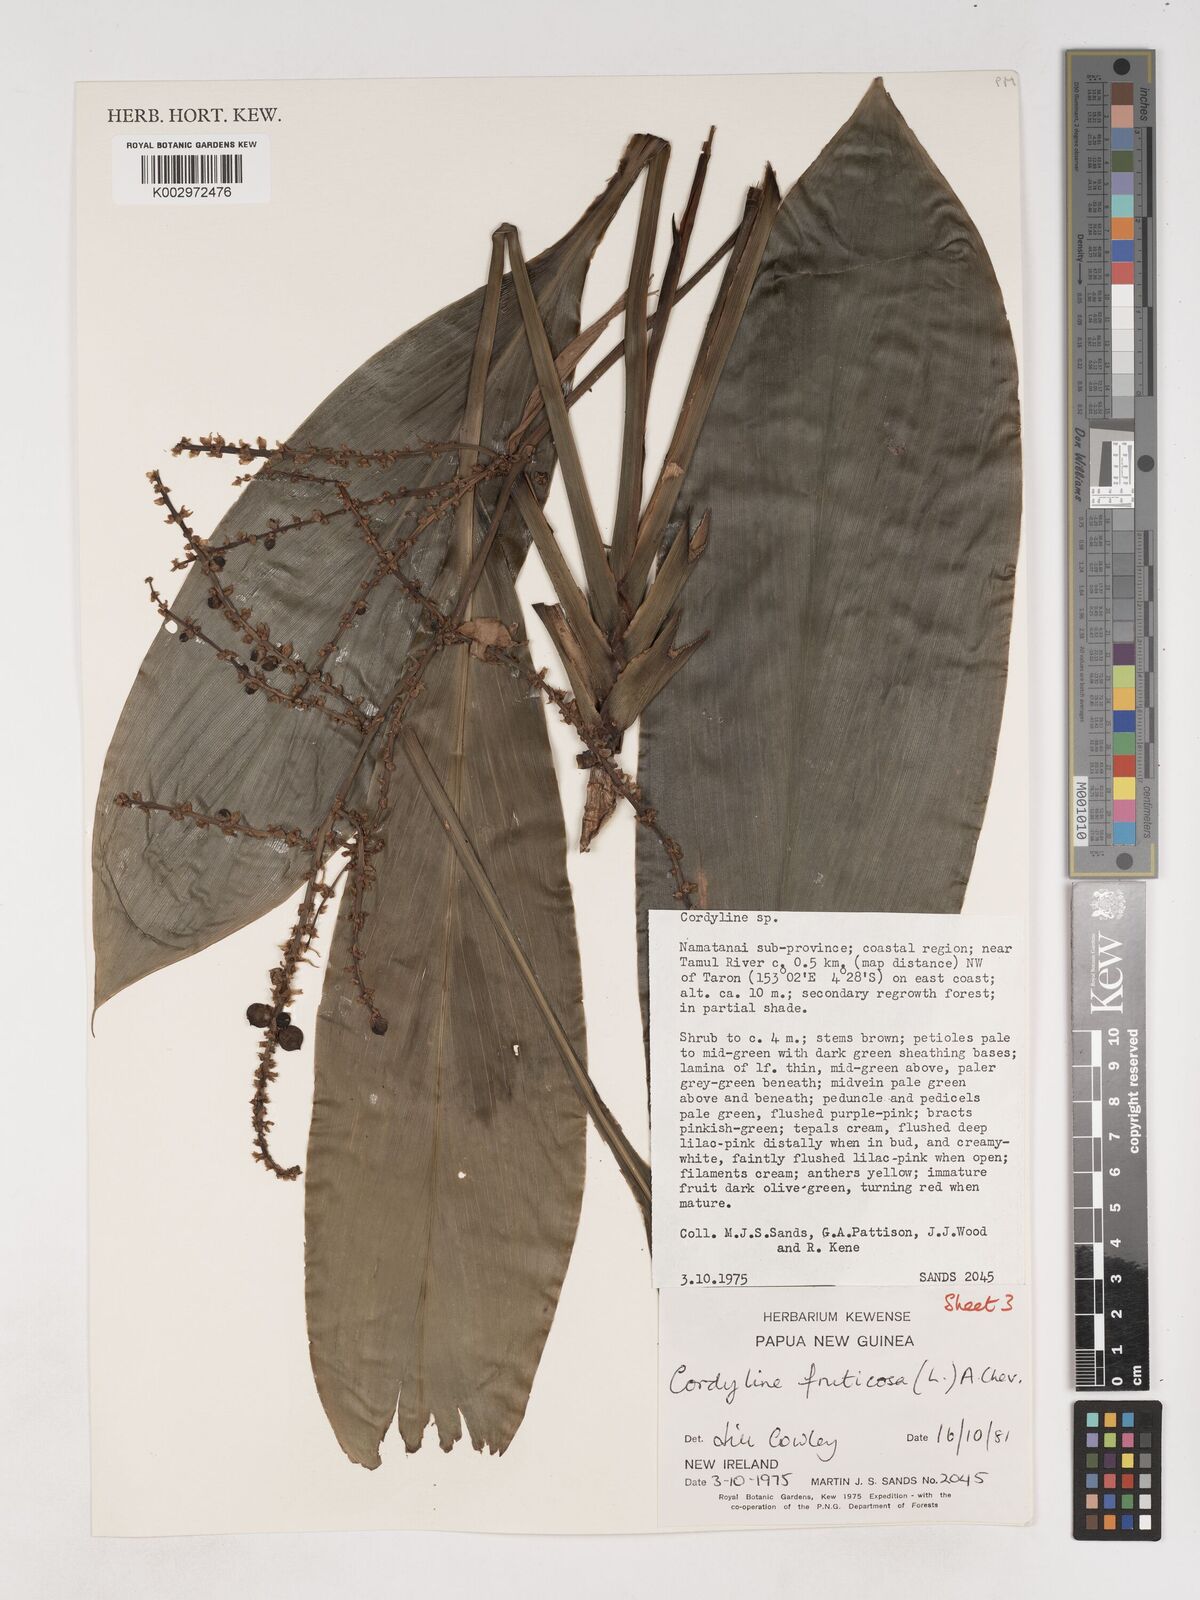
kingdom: Plantae
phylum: Tracheophyta
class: Liliopsida
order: Asparagales
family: Asparagaceae
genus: Cordyline
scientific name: Cordyline fruticosa
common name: Good-luck-plant
